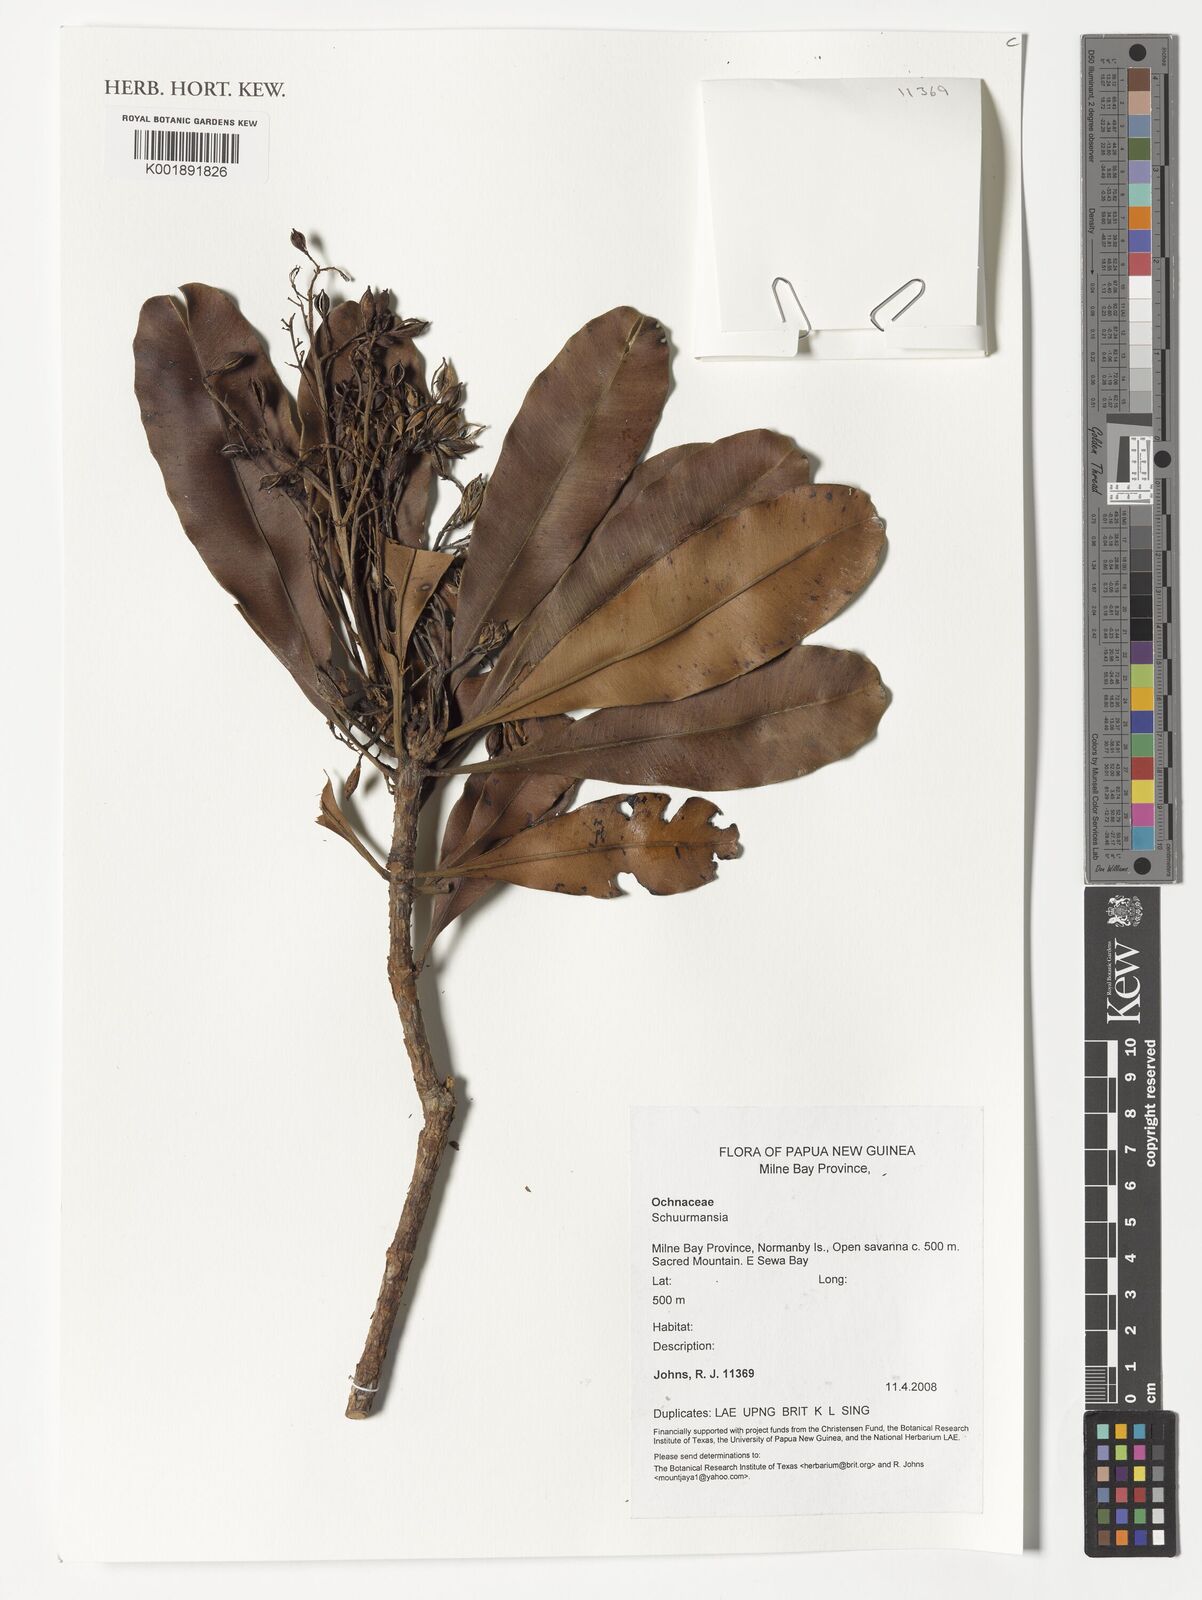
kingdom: Plantae
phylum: Tracheophyta
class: Magnoliopsida
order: Malpighiales
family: Ochnaceae
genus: Schuurmansia
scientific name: Schuurmansia
